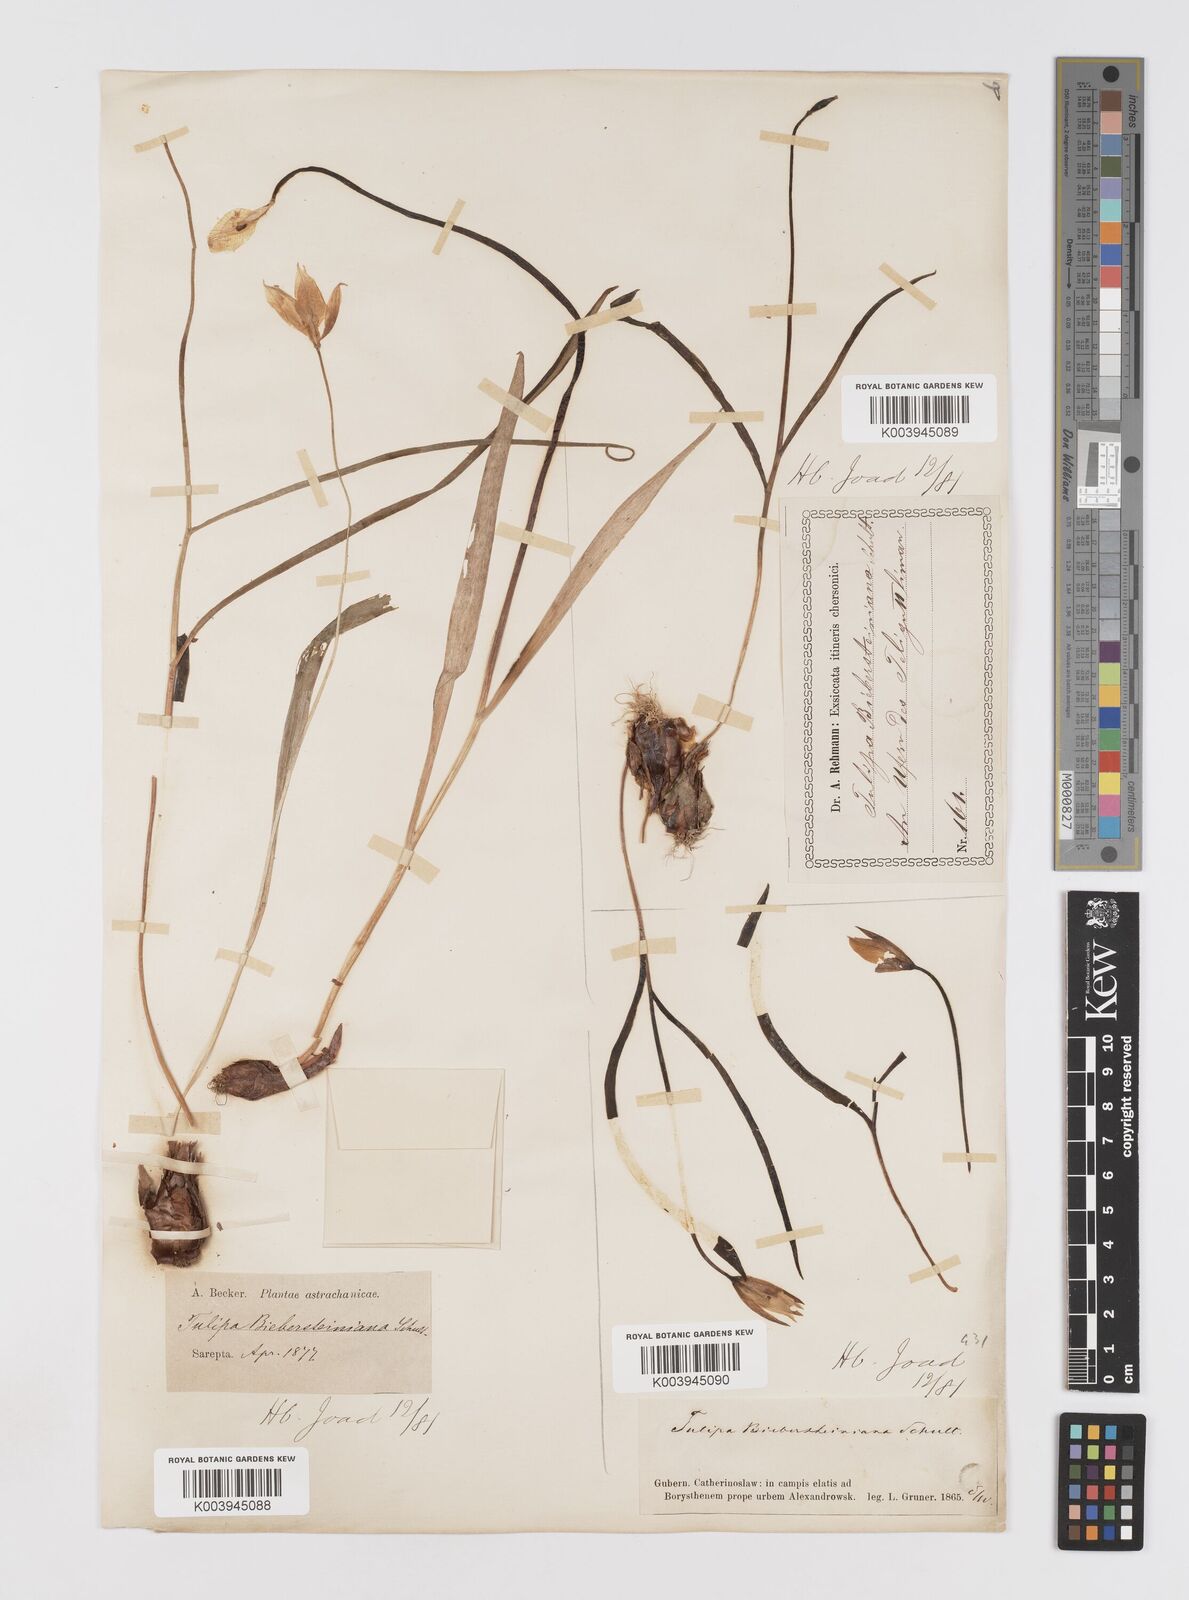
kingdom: Plantae
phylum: Tracheophyta
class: Liliopsida
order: Liliales
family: Liliaceae
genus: Tulipa
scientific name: Tulipa sylvestris
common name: Wild tulip
